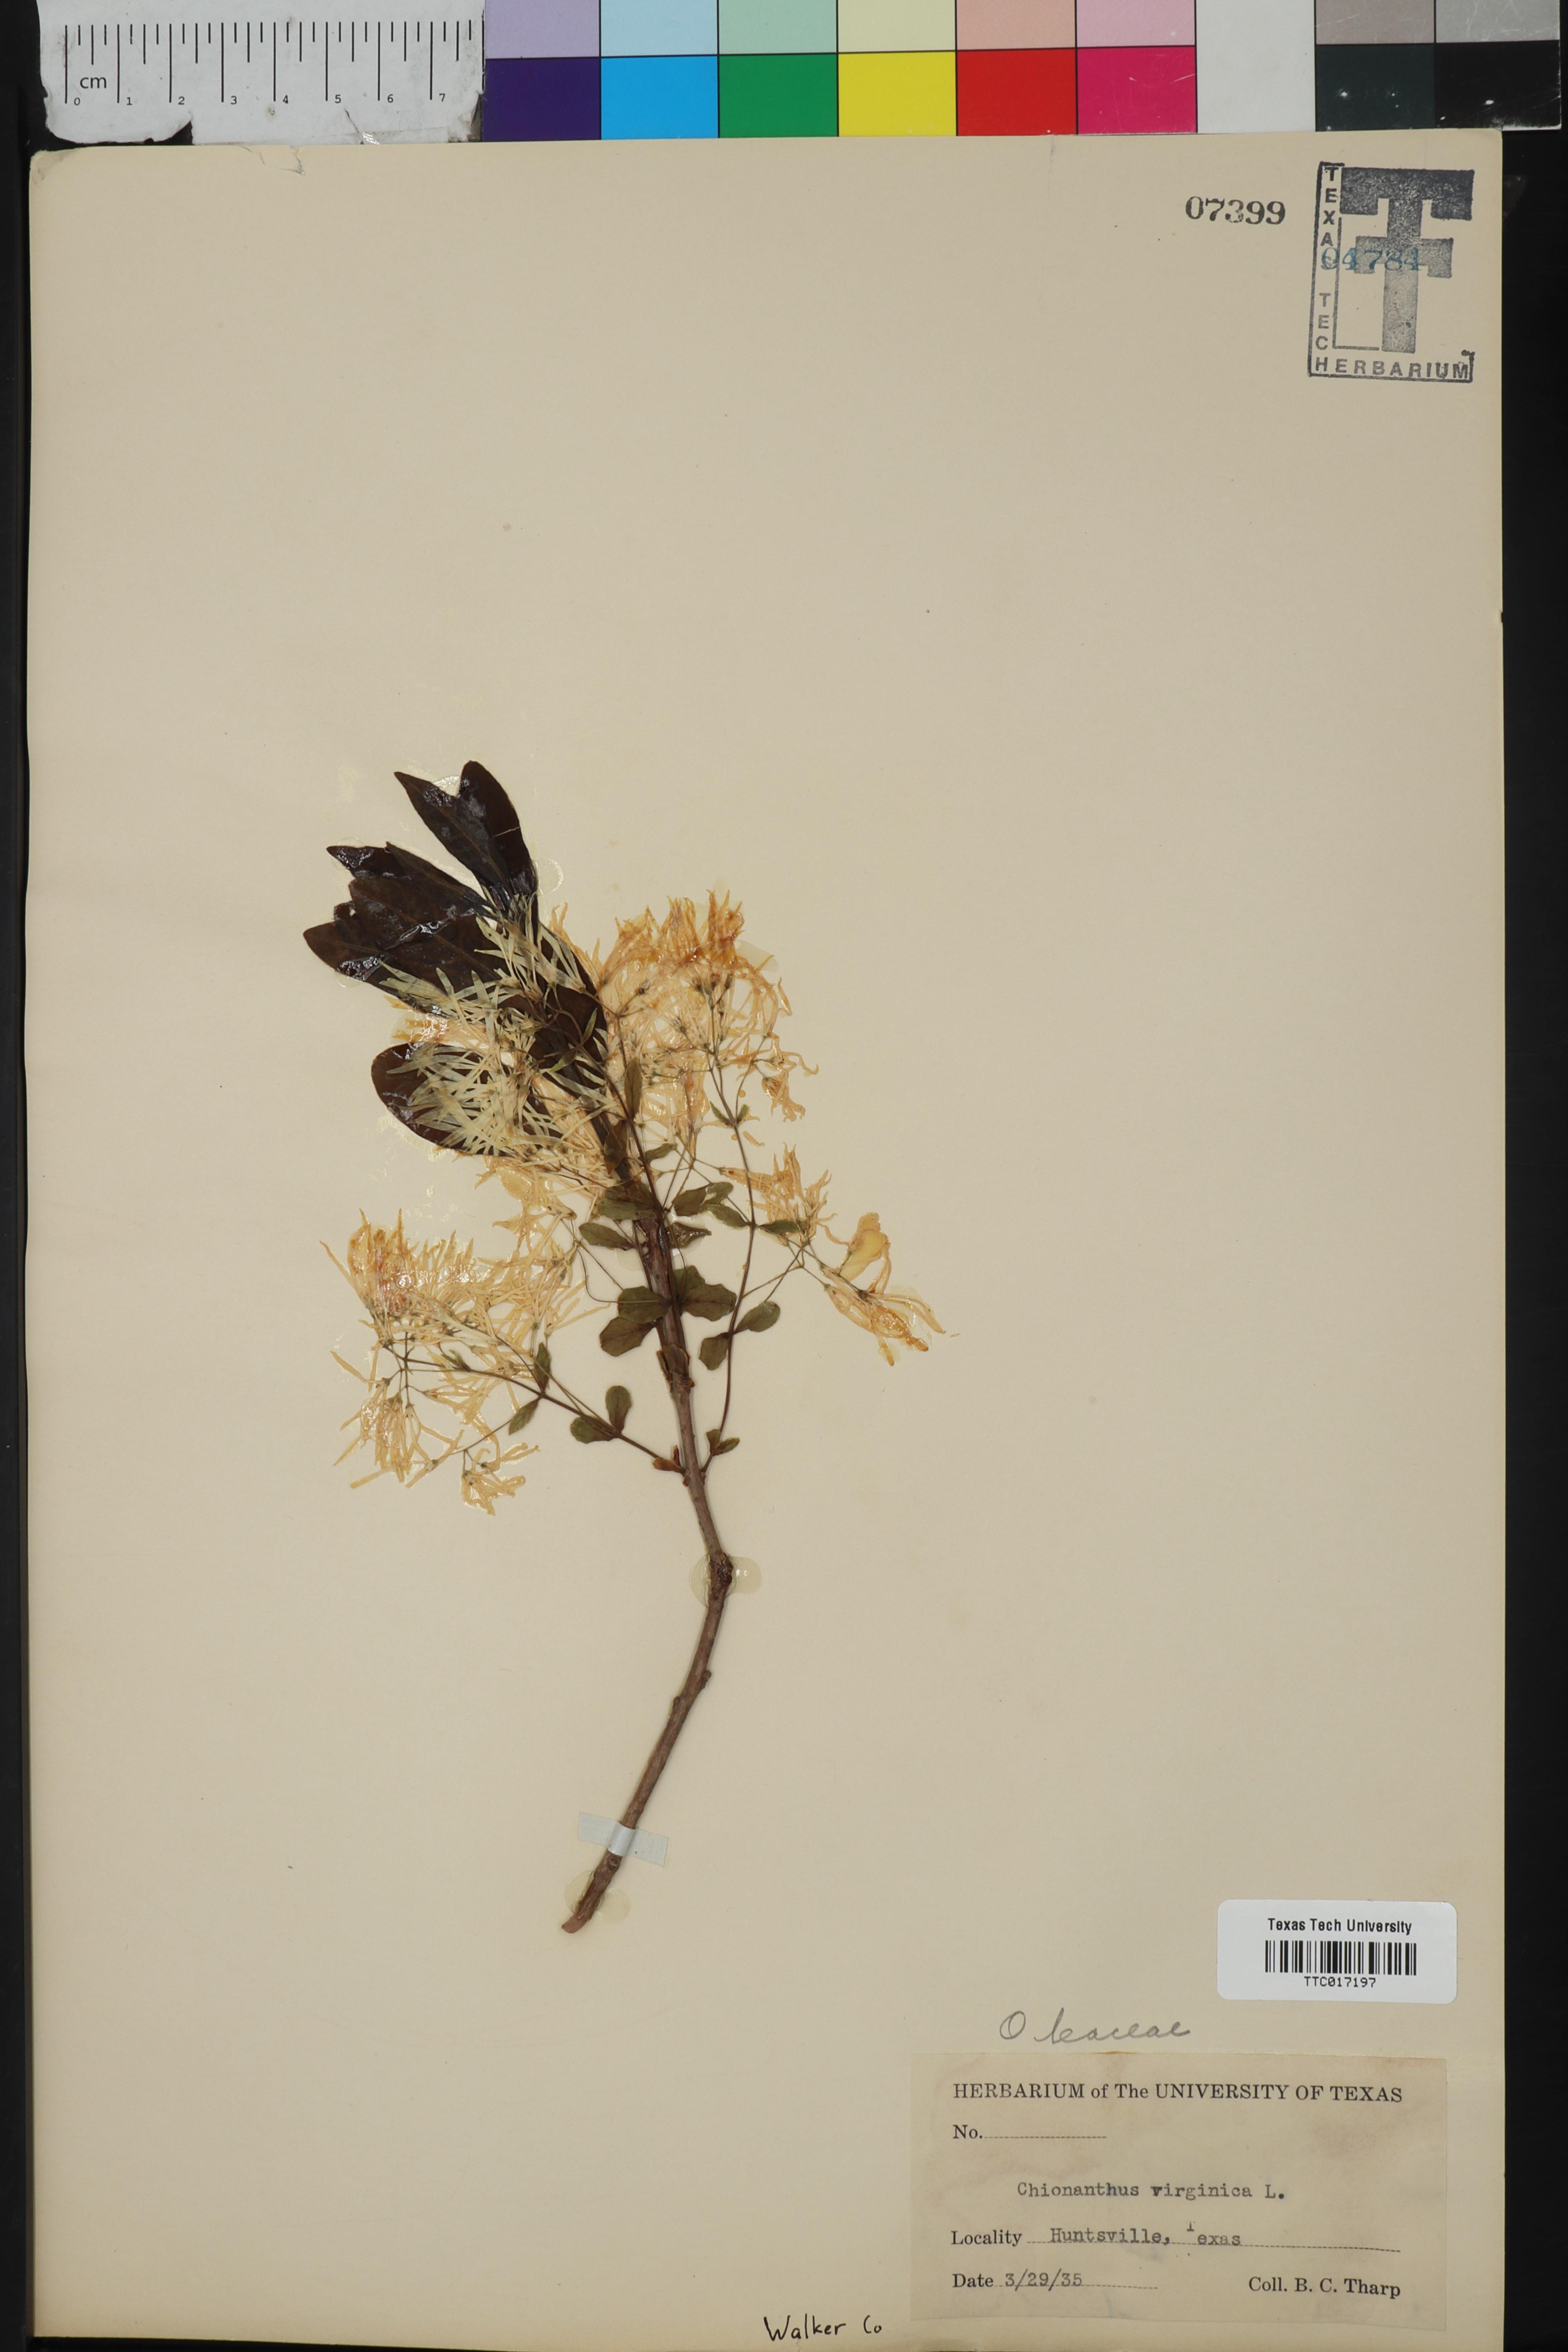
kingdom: Plantae
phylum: Tracheophyta
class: Magnoliopsida
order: Lamiales
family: Oleaceae
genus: Chionanthus
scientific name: Chionanthus virginicus
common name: American fringetree
